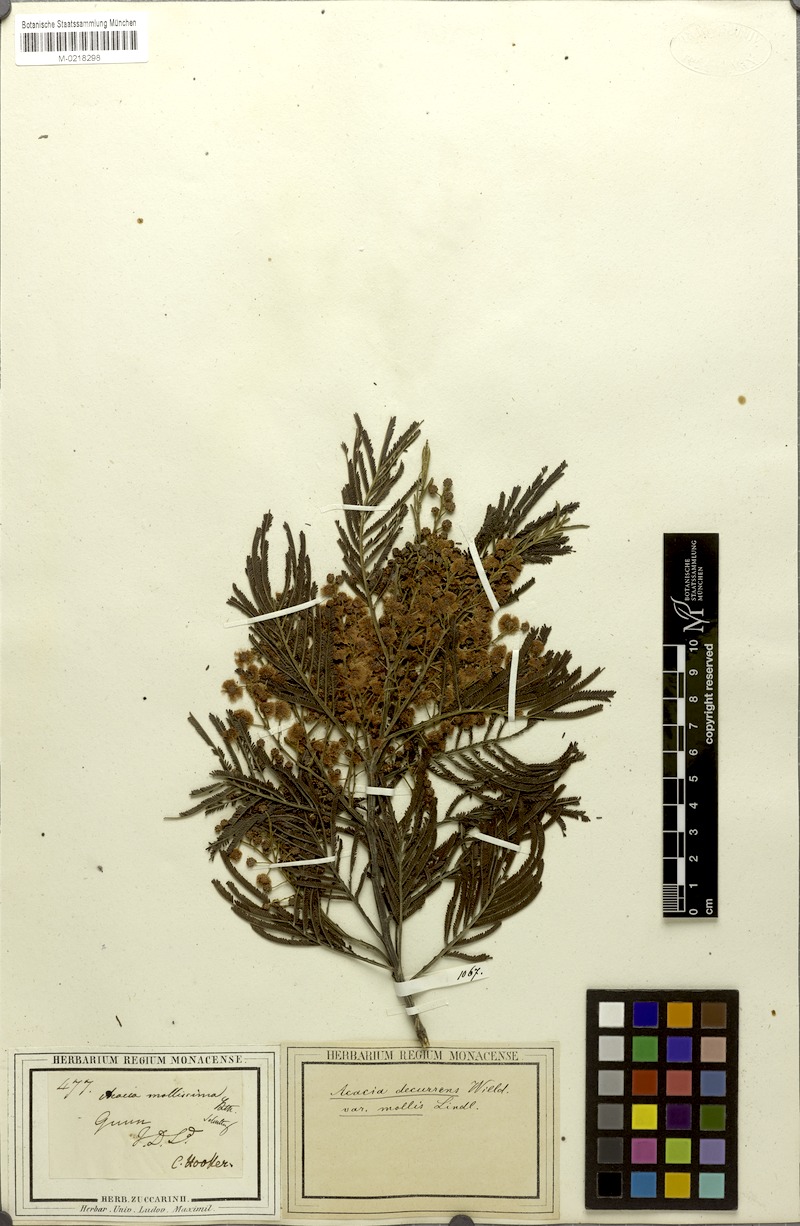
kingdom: Plantae
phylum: Tracheophyta
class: Magnoliopsida
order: Fabales
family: Fabaceae
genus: Acacia
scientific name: Acacia mearnsii
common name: Black wattle
